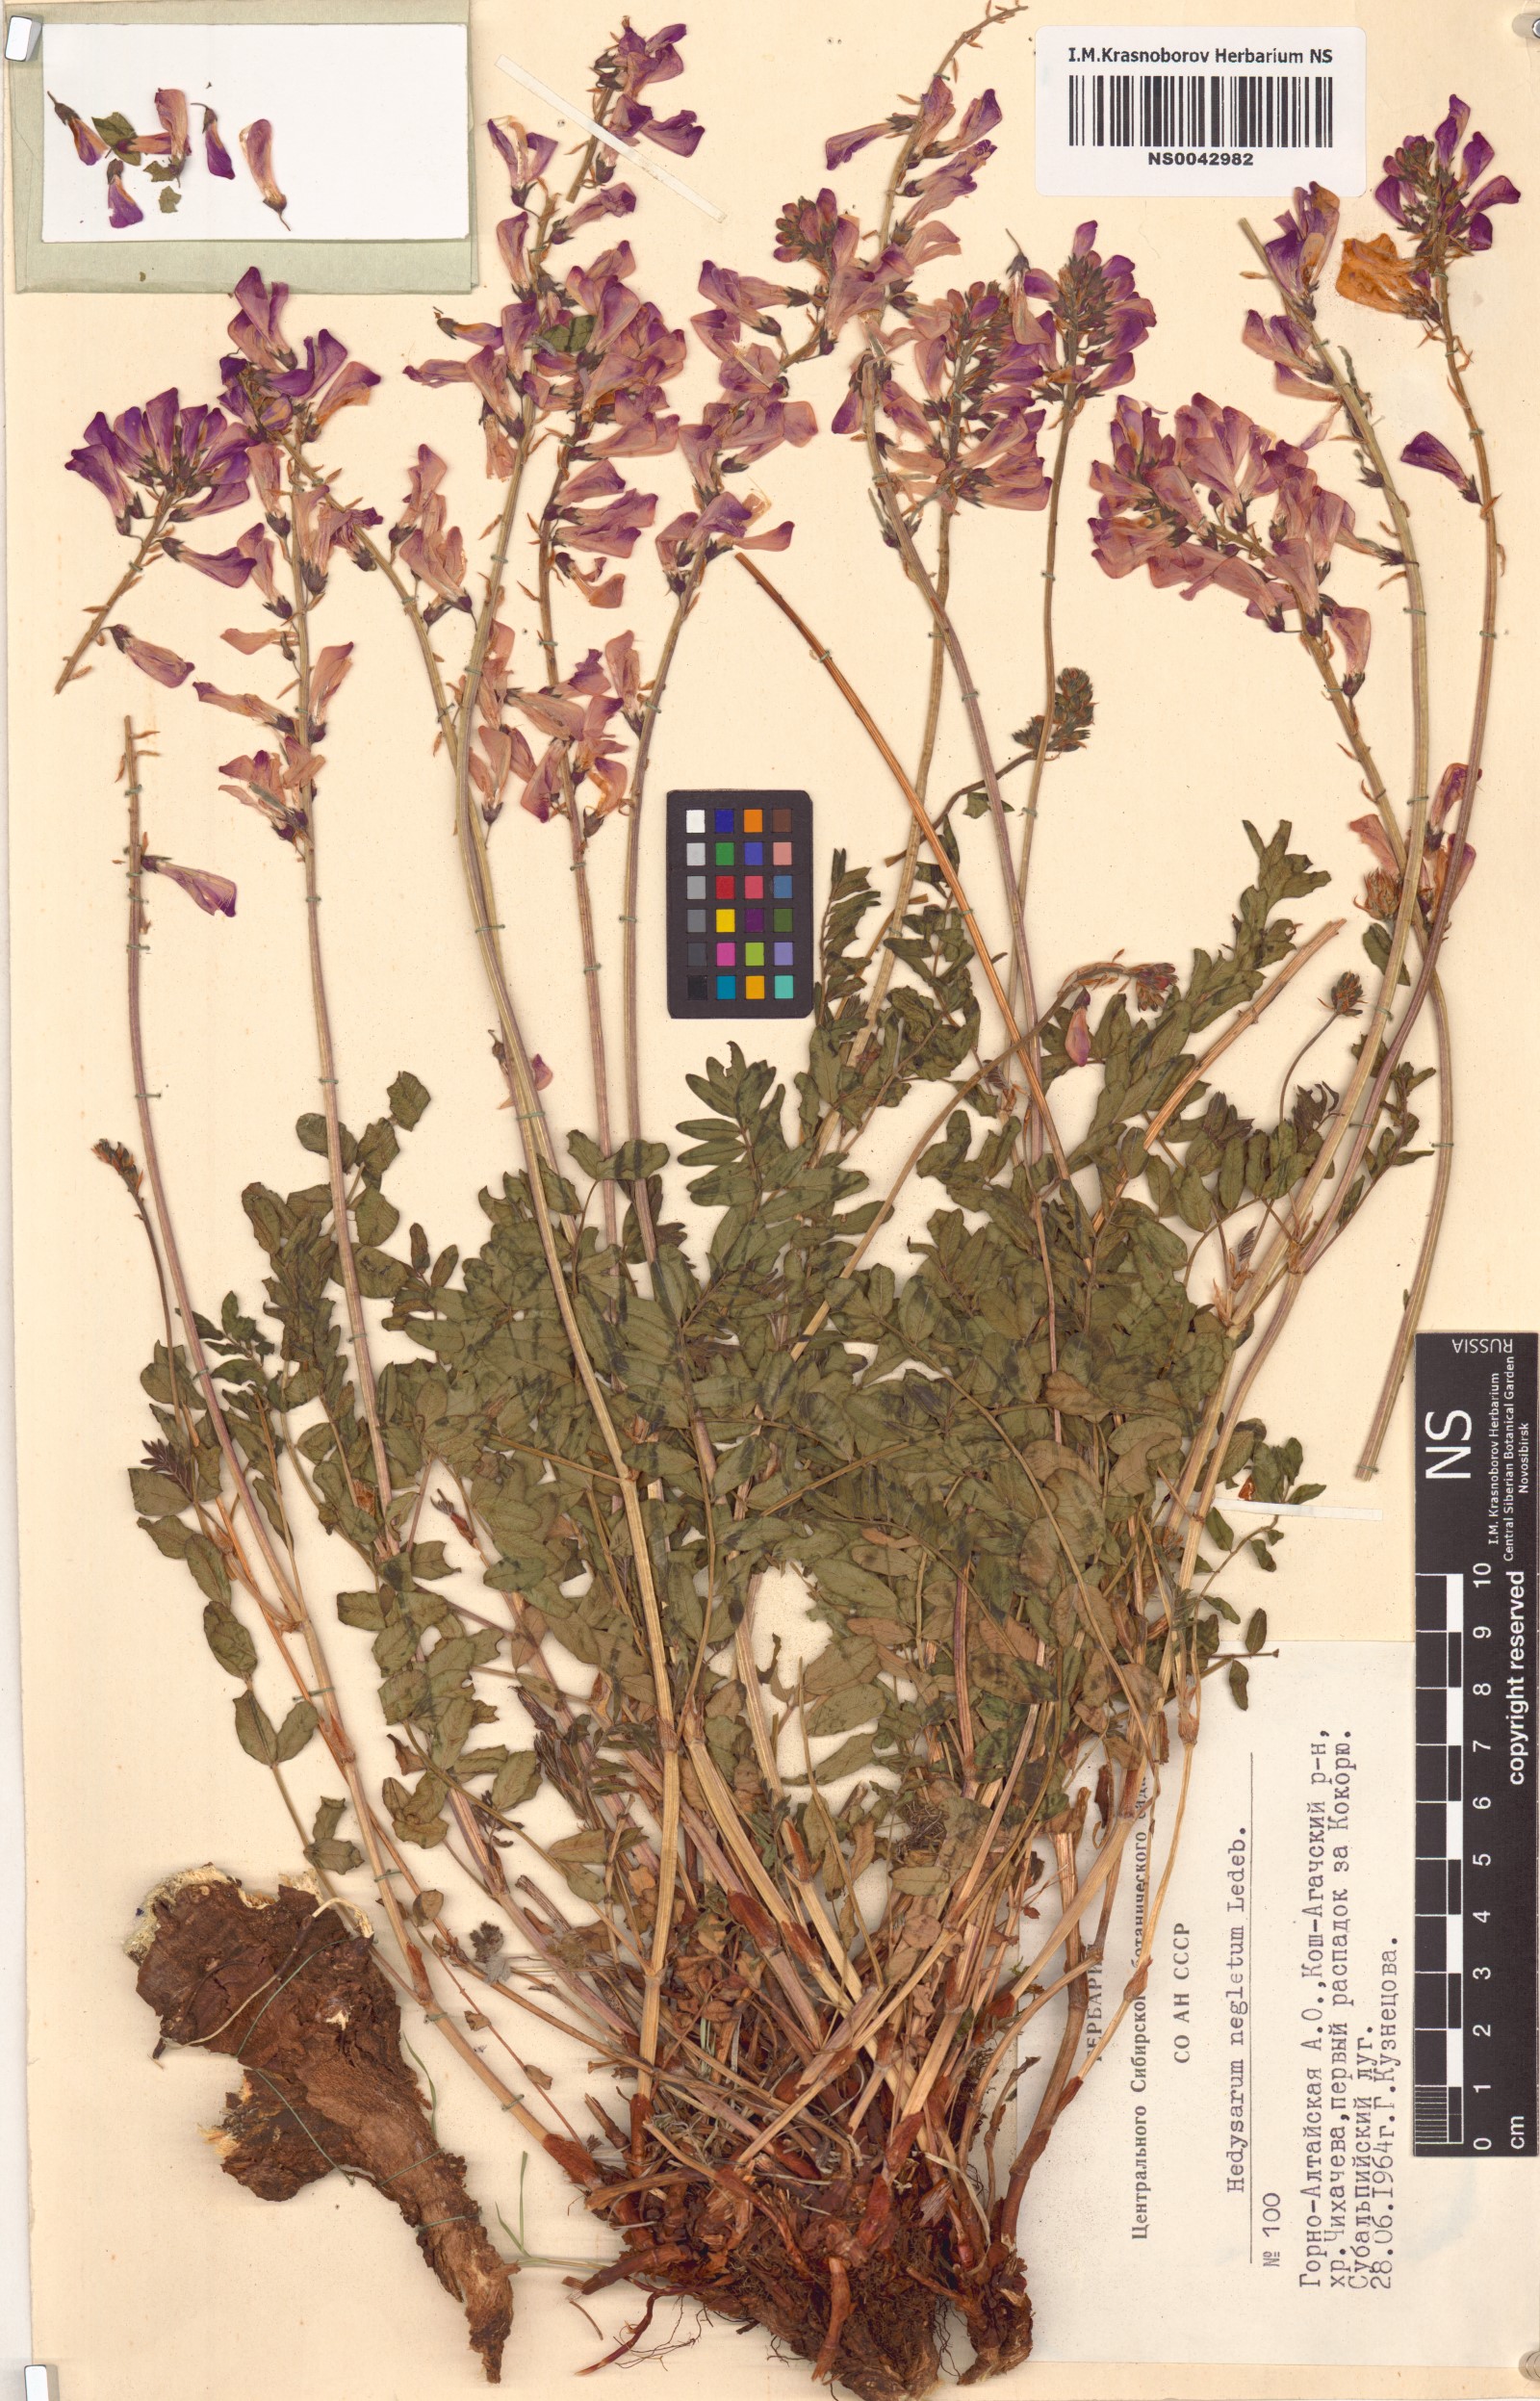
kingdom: Plantae
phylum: Tracheophyta
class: Magnoliopsida
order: Fabales
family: Fabaceae
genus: Hedysarum
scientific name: Hedysarum neglectum
